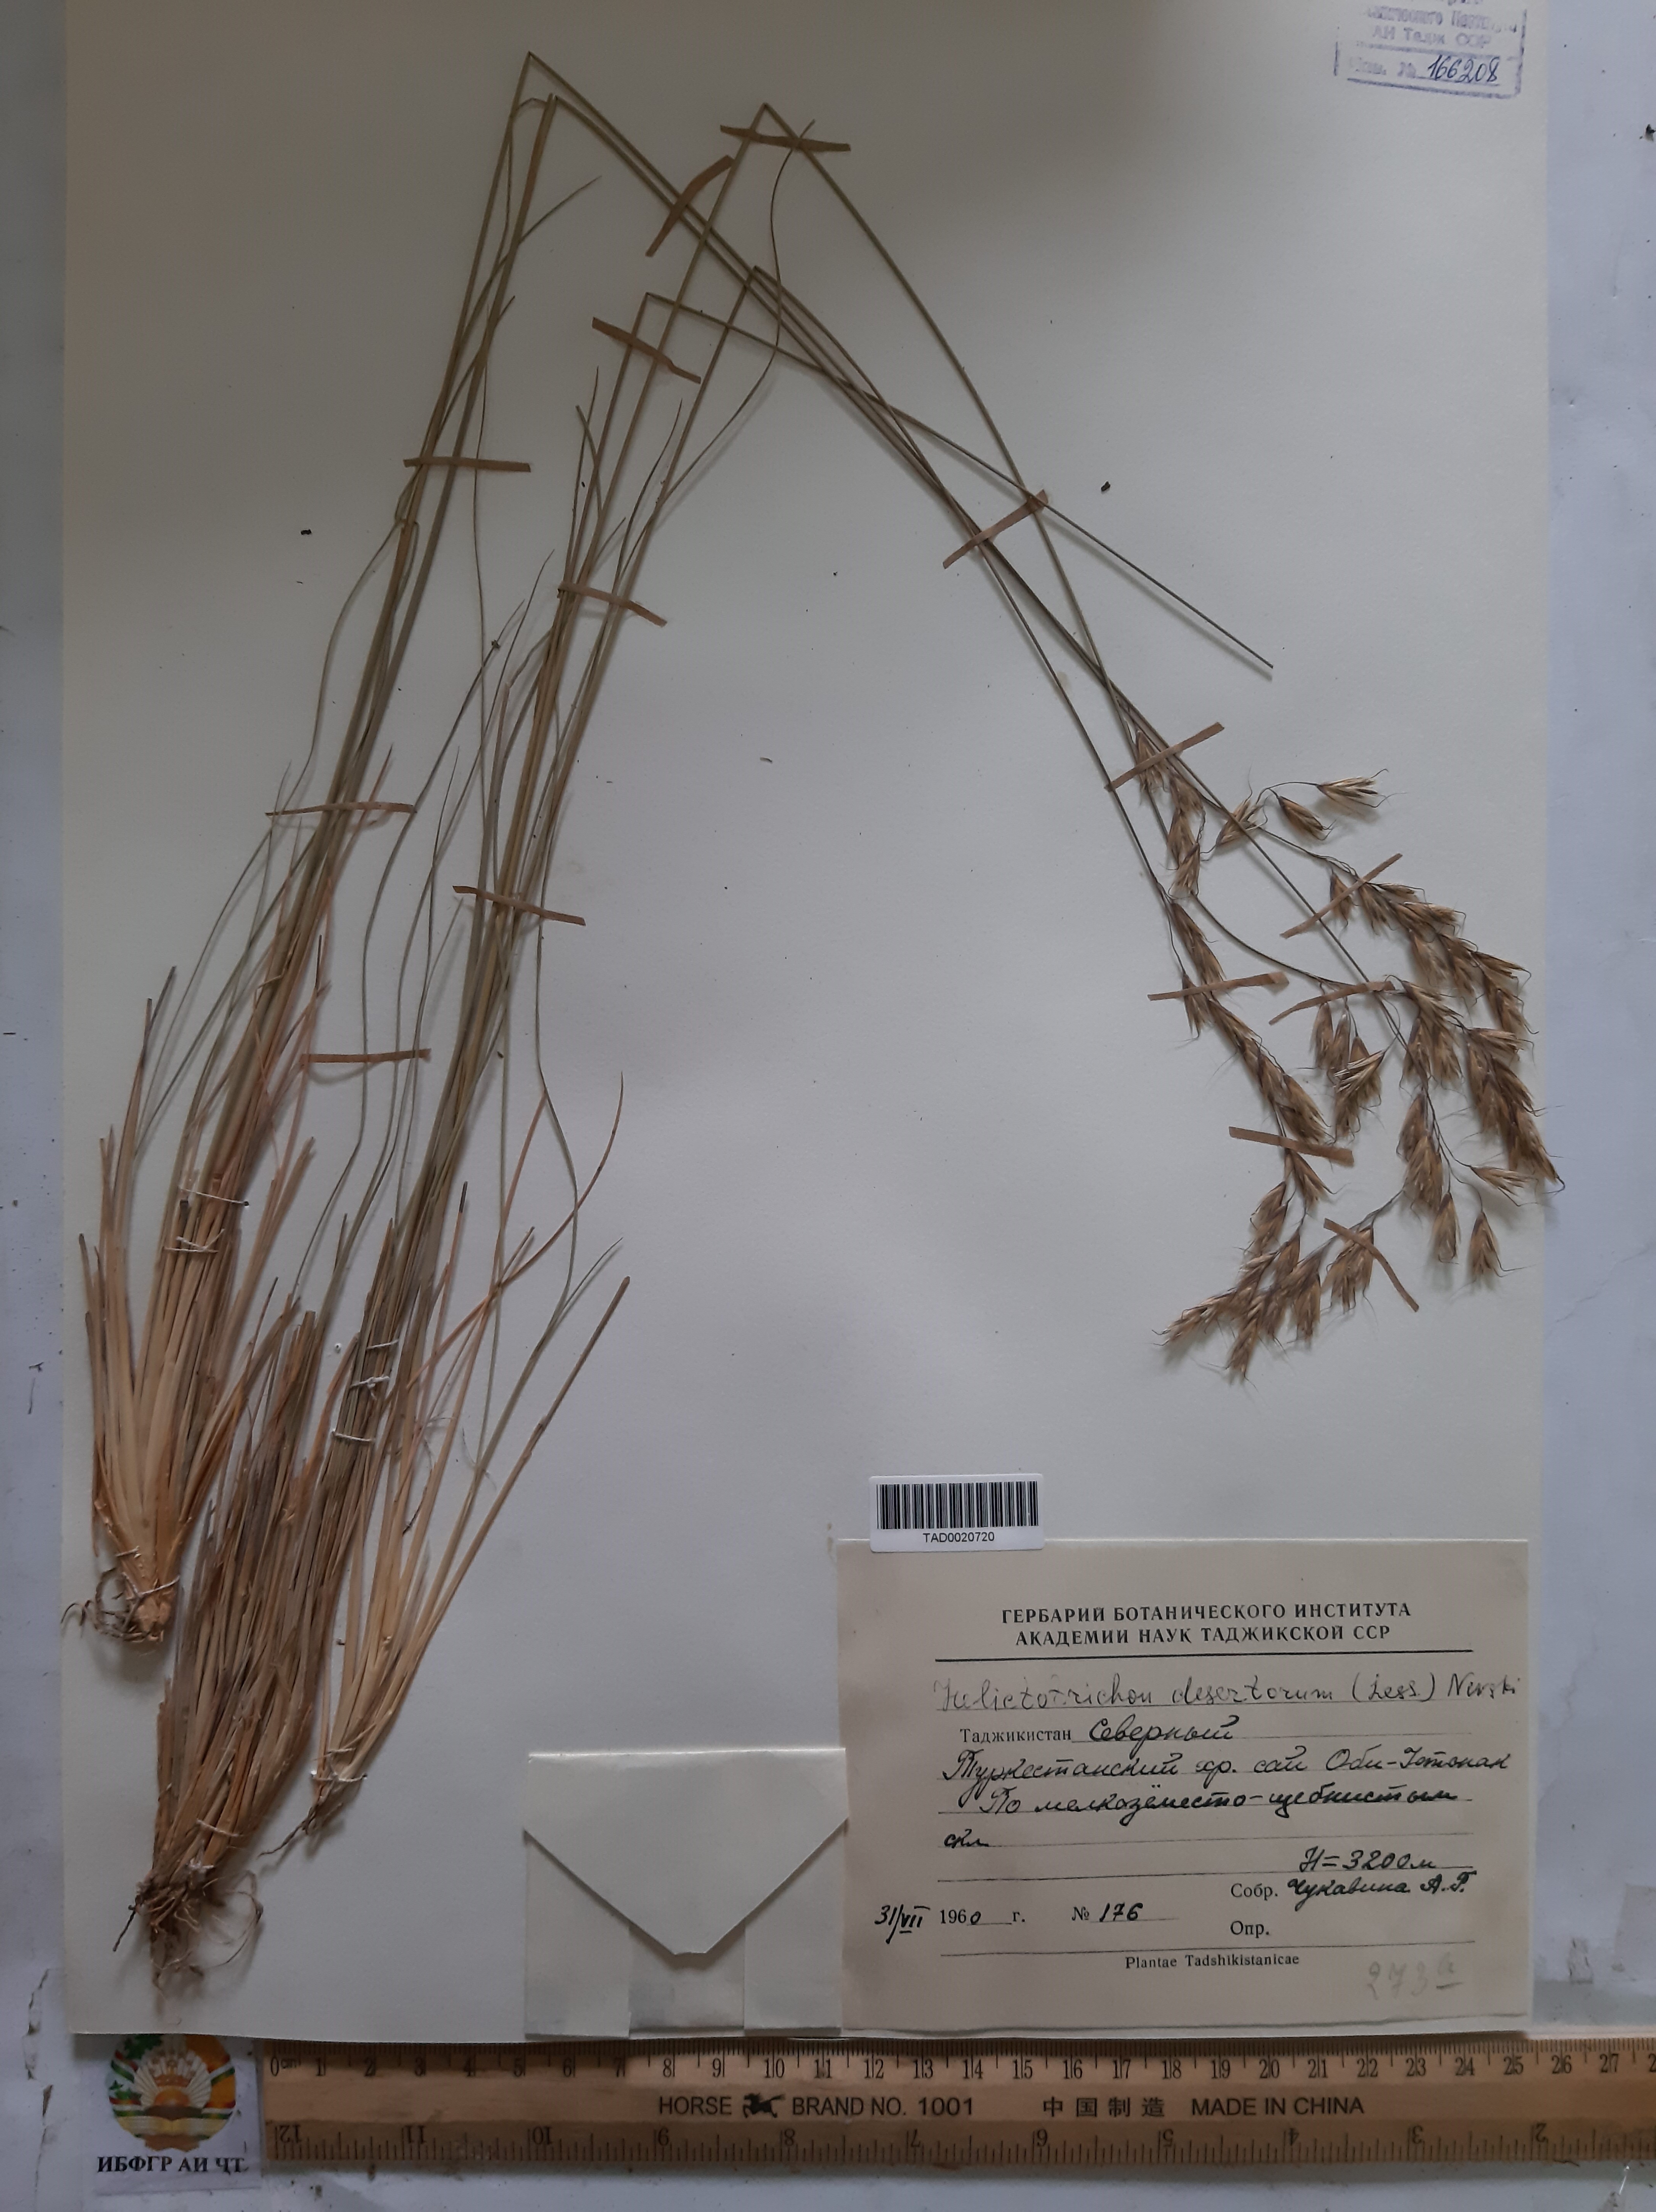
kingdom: Plantae
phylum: Tracheophyta
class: Liliopsida
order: Poales
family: Poaceae
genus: Helictotrichon
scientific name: Helictotrichon desertorum
